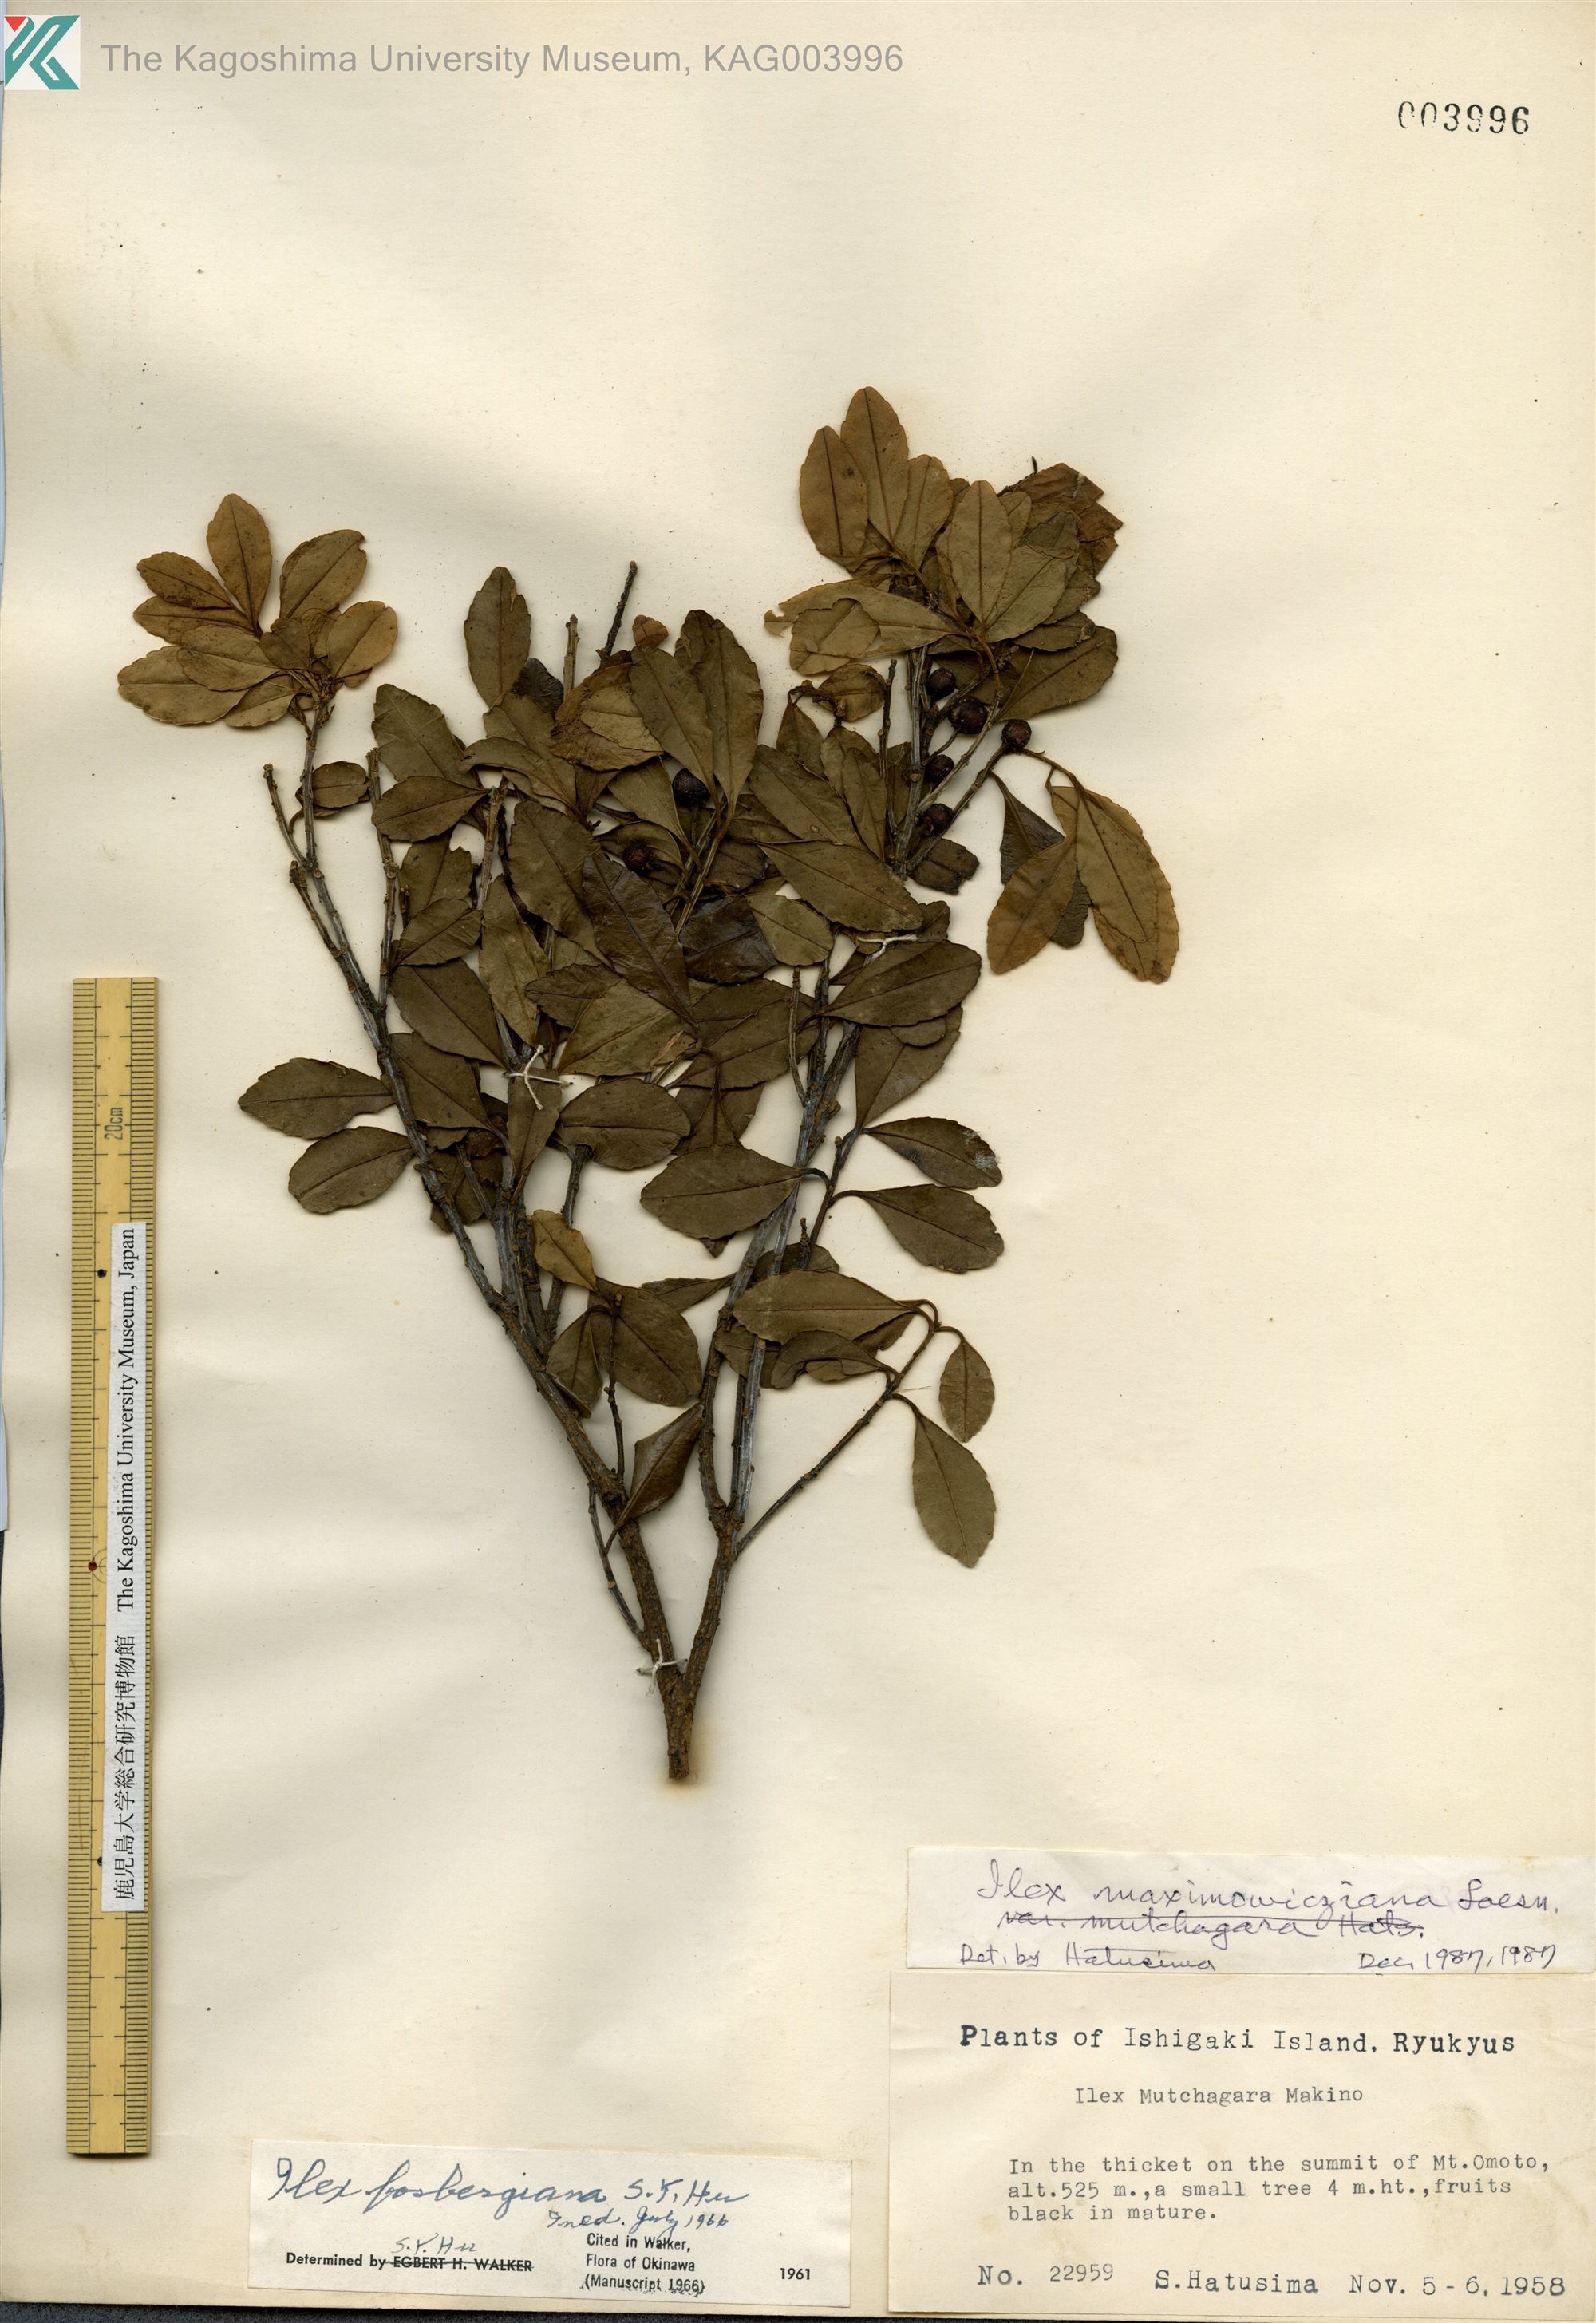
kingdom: Plantae
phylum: Tracheophyta
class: Magnoliopsida
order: Aquifoliales
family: Aquifoliaceae
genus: Ilex
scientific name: Ilex maximowicziana
